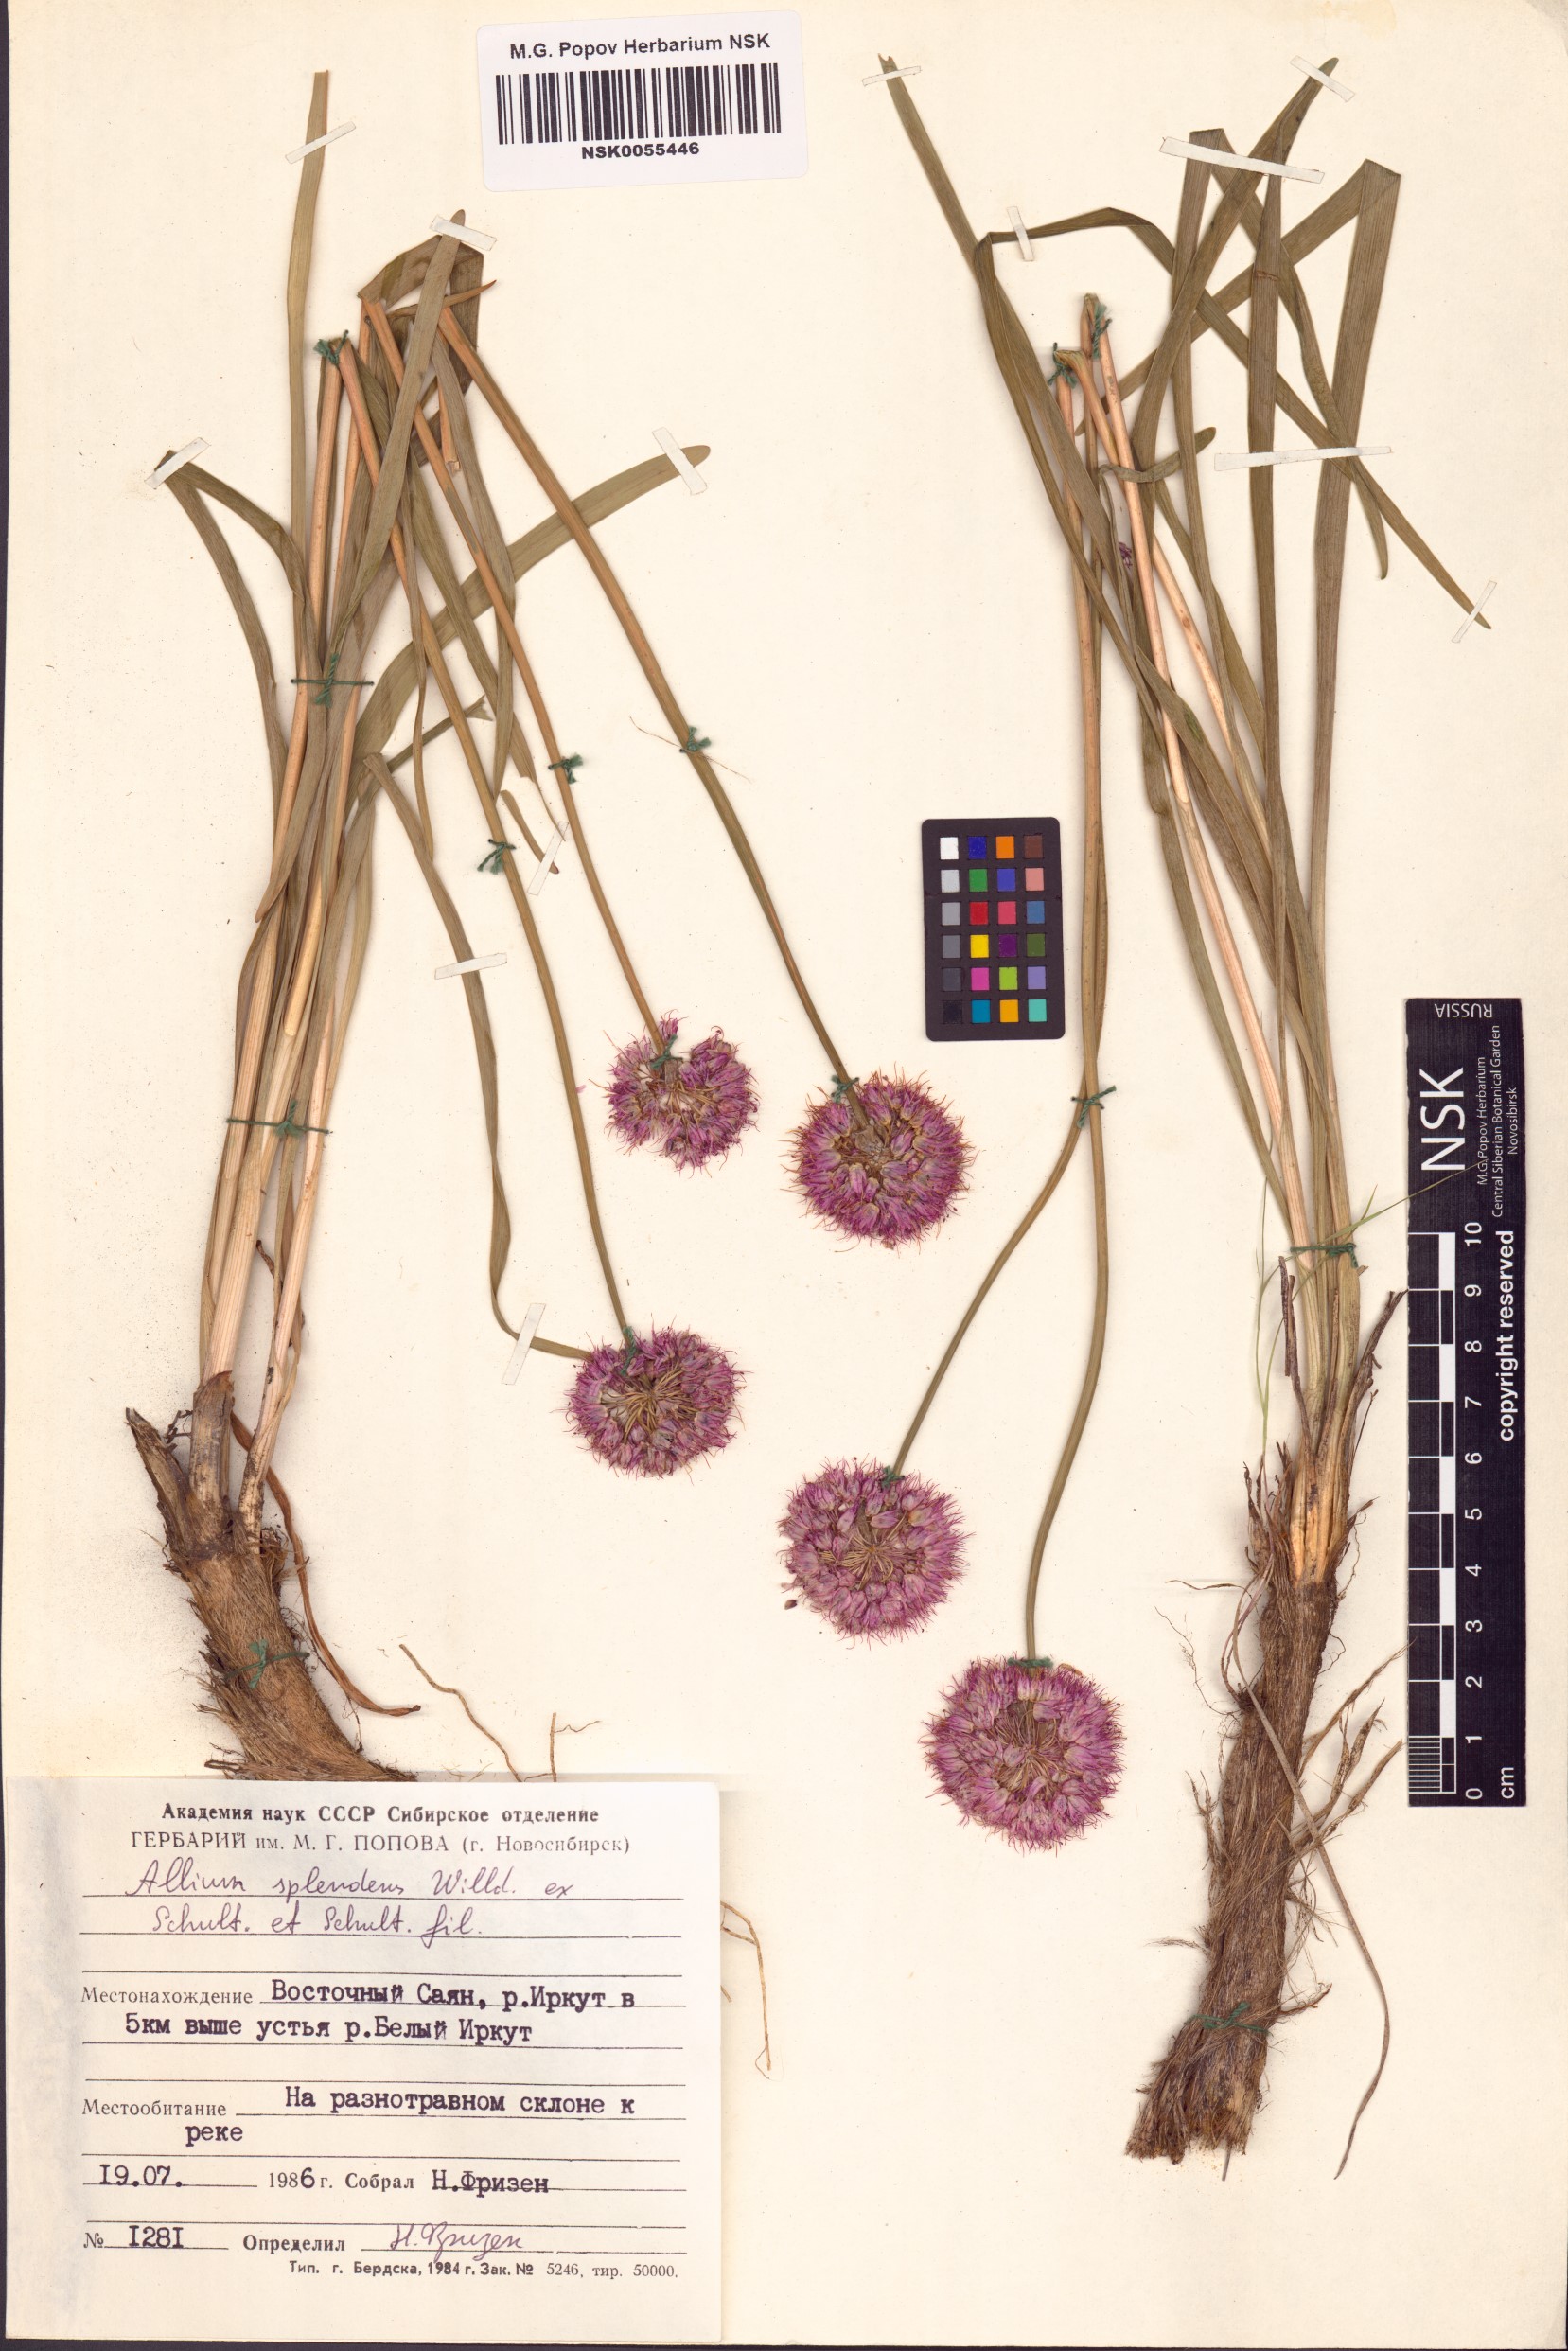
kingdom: Plantae
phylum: Tracheophyta
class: Liliopsida
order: Asparagales
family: Amaryllidaceae
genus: Allium
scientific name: Allium splendens
